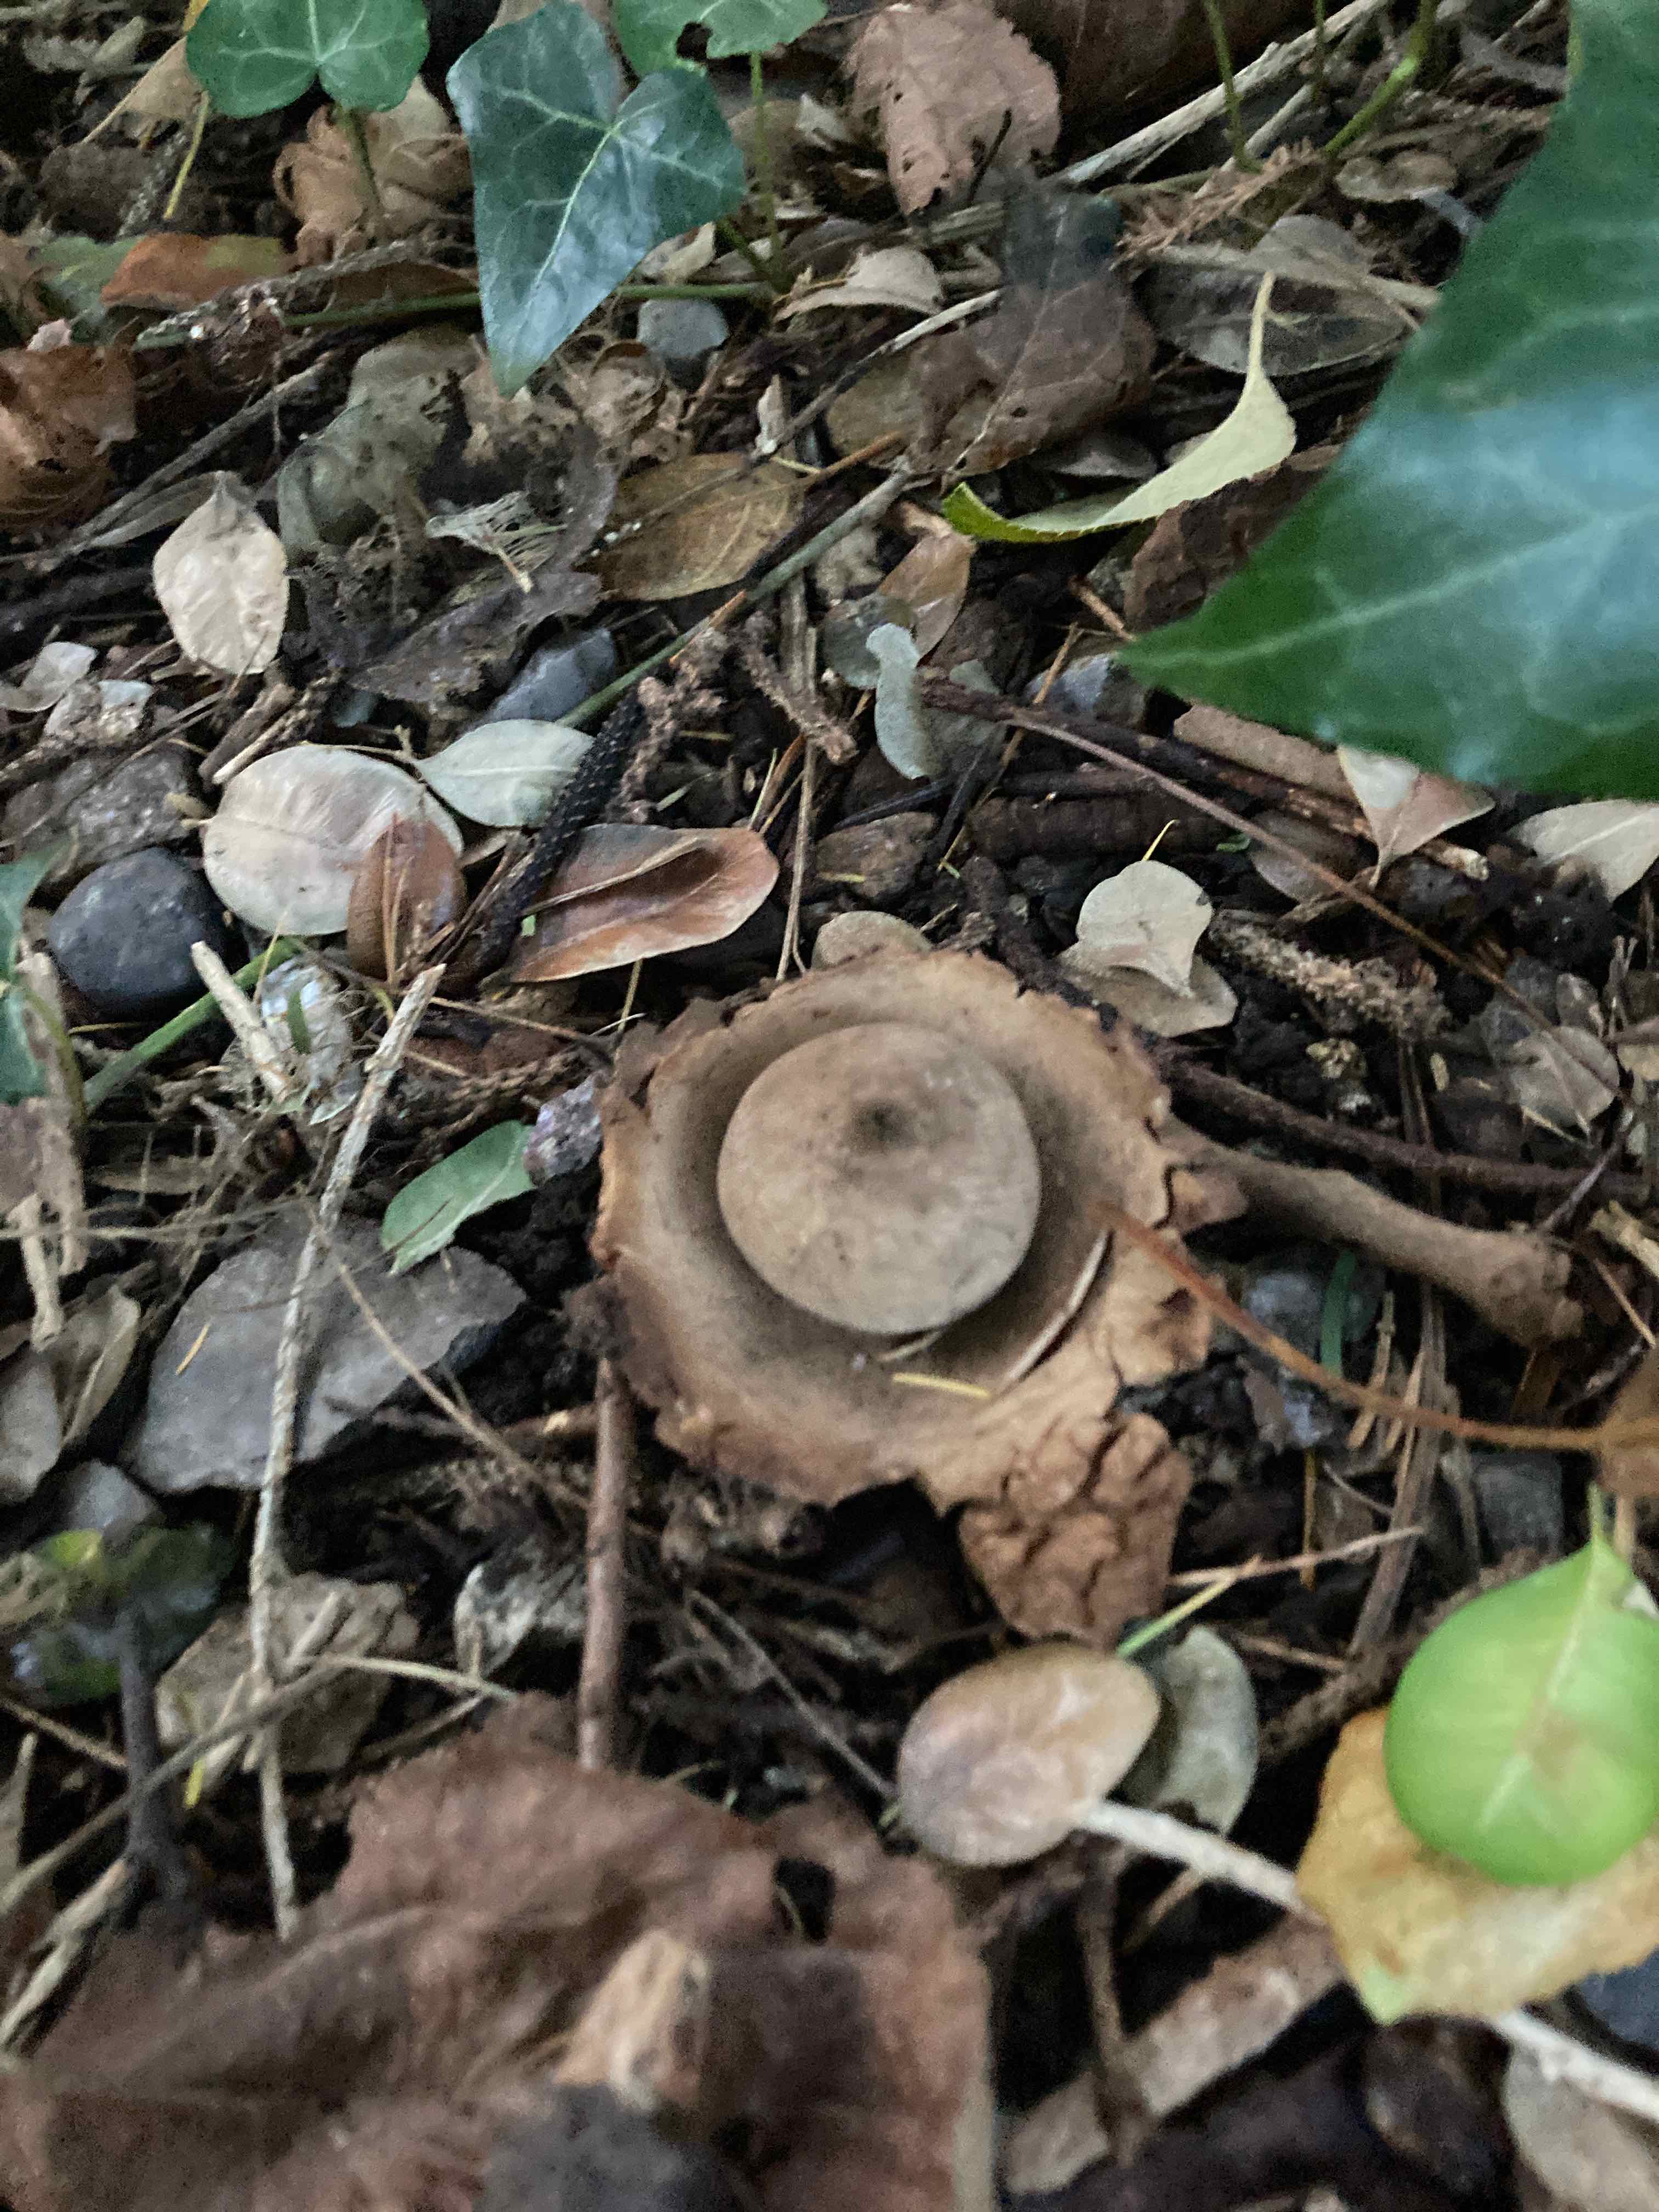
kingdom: Fungi
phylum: Basidiomycota
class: Agaricomycetes
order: Geastrales
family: Geastraceae
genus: Geastrum
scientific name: Geastrum michelianum
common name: kødet stjernebold
